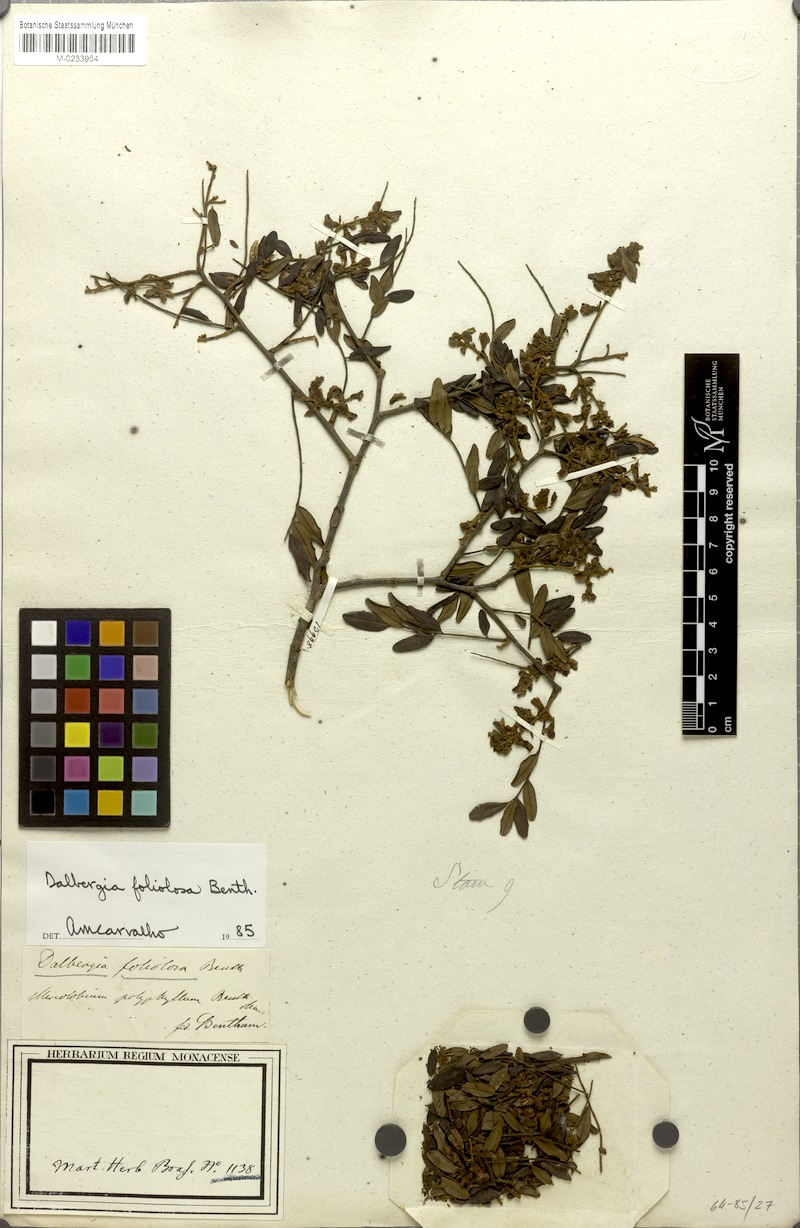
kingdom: Plantae
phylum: Tracheophyta
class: Magnoliopsida
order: Fabales
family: Fabaceae
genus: Dalbergia
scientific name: Dalbergia foliolosa
